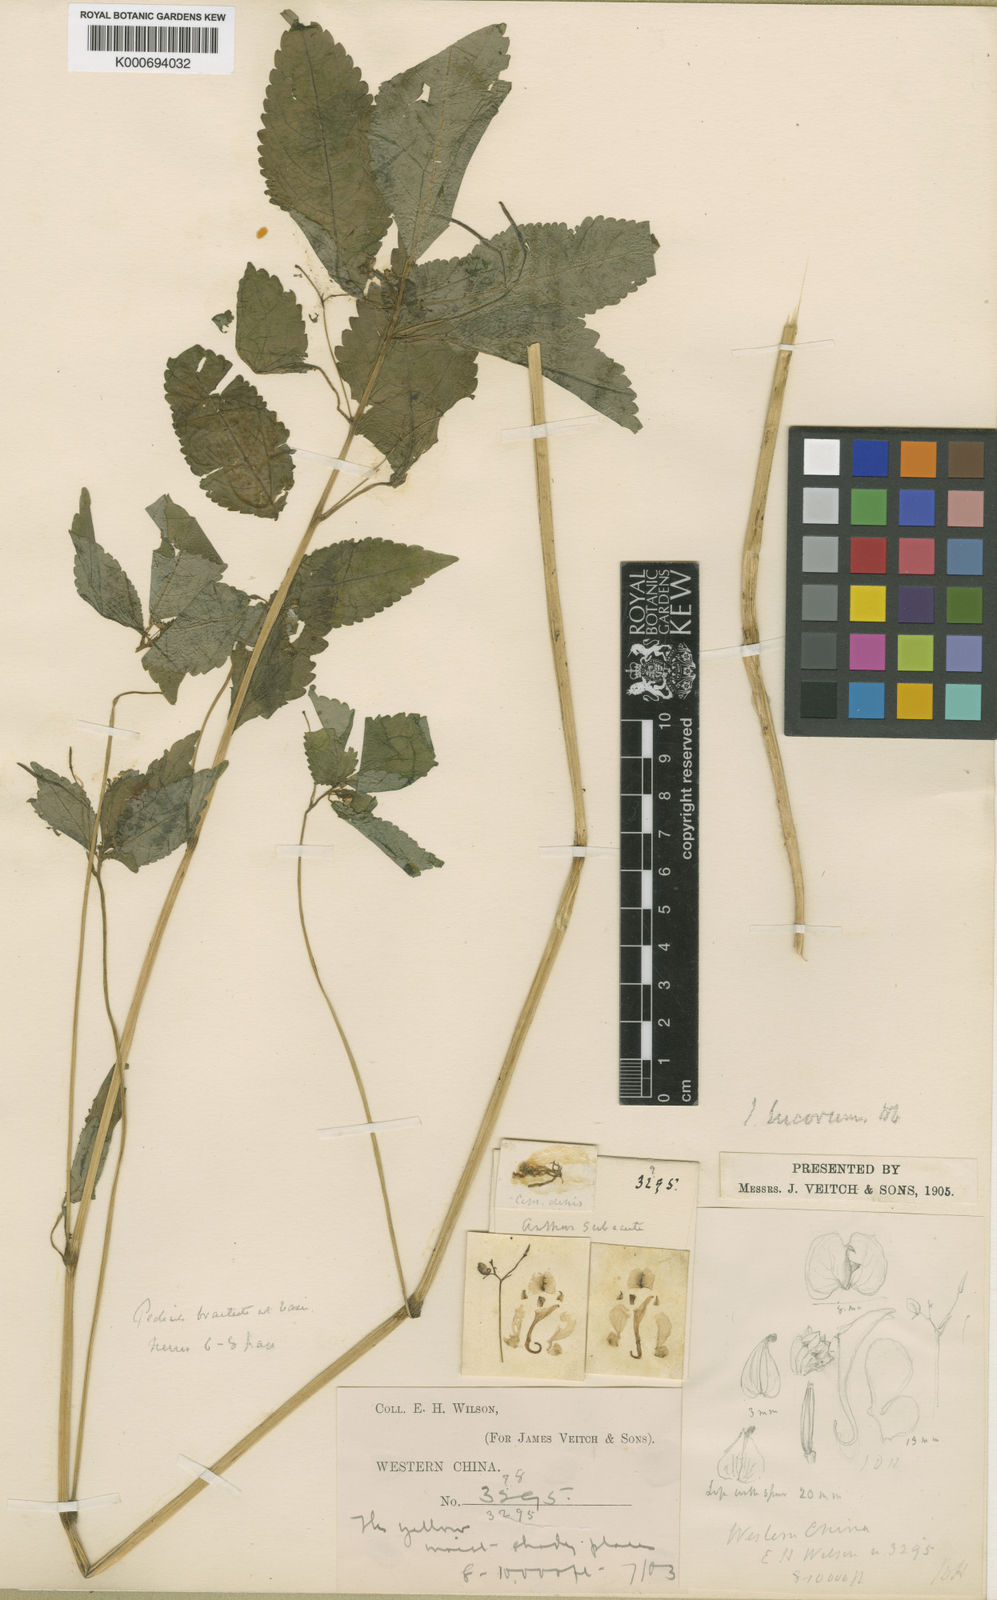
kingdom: Plantae
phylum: Tracheophyta
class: Magnoliopsida
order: Ericales
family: Balsaminaceae
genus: Impatiens
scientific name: Impatiens lucorum
